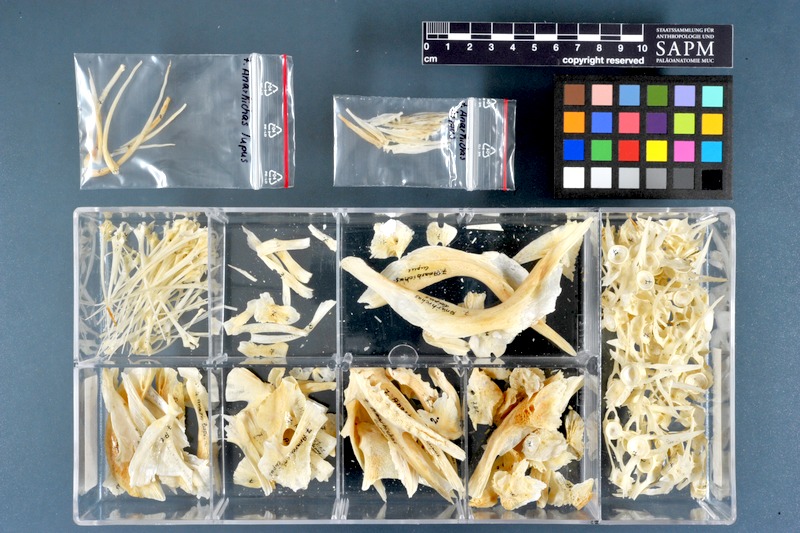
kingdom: Animalia
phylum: Chordata
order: Perciformes
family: Anarhichadidae
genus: Anarhichas
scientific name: Anarhichas lupus
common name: Wolf-fish
